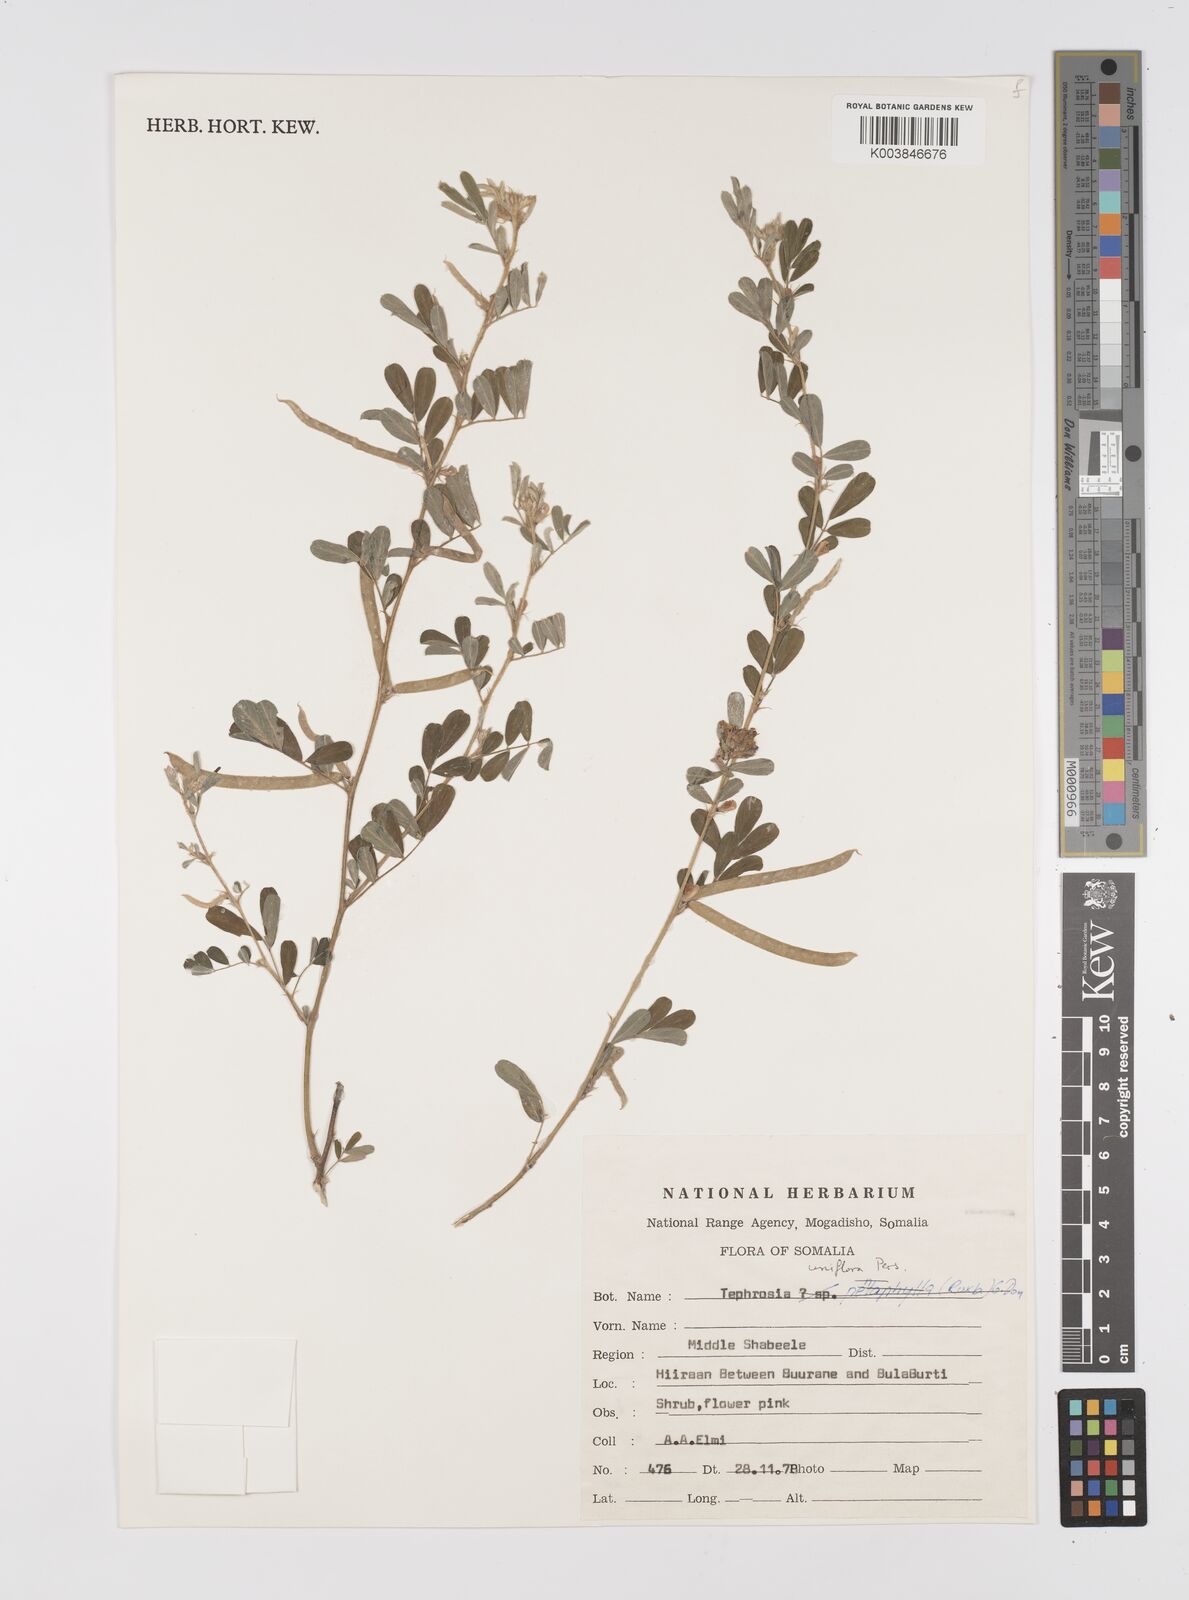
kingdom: Plantae
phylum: Tracheophyta
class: Magnoliopsida
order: Fabales
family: Fabaceae
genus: Tephrosia
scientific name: Tephrosia uniflora
